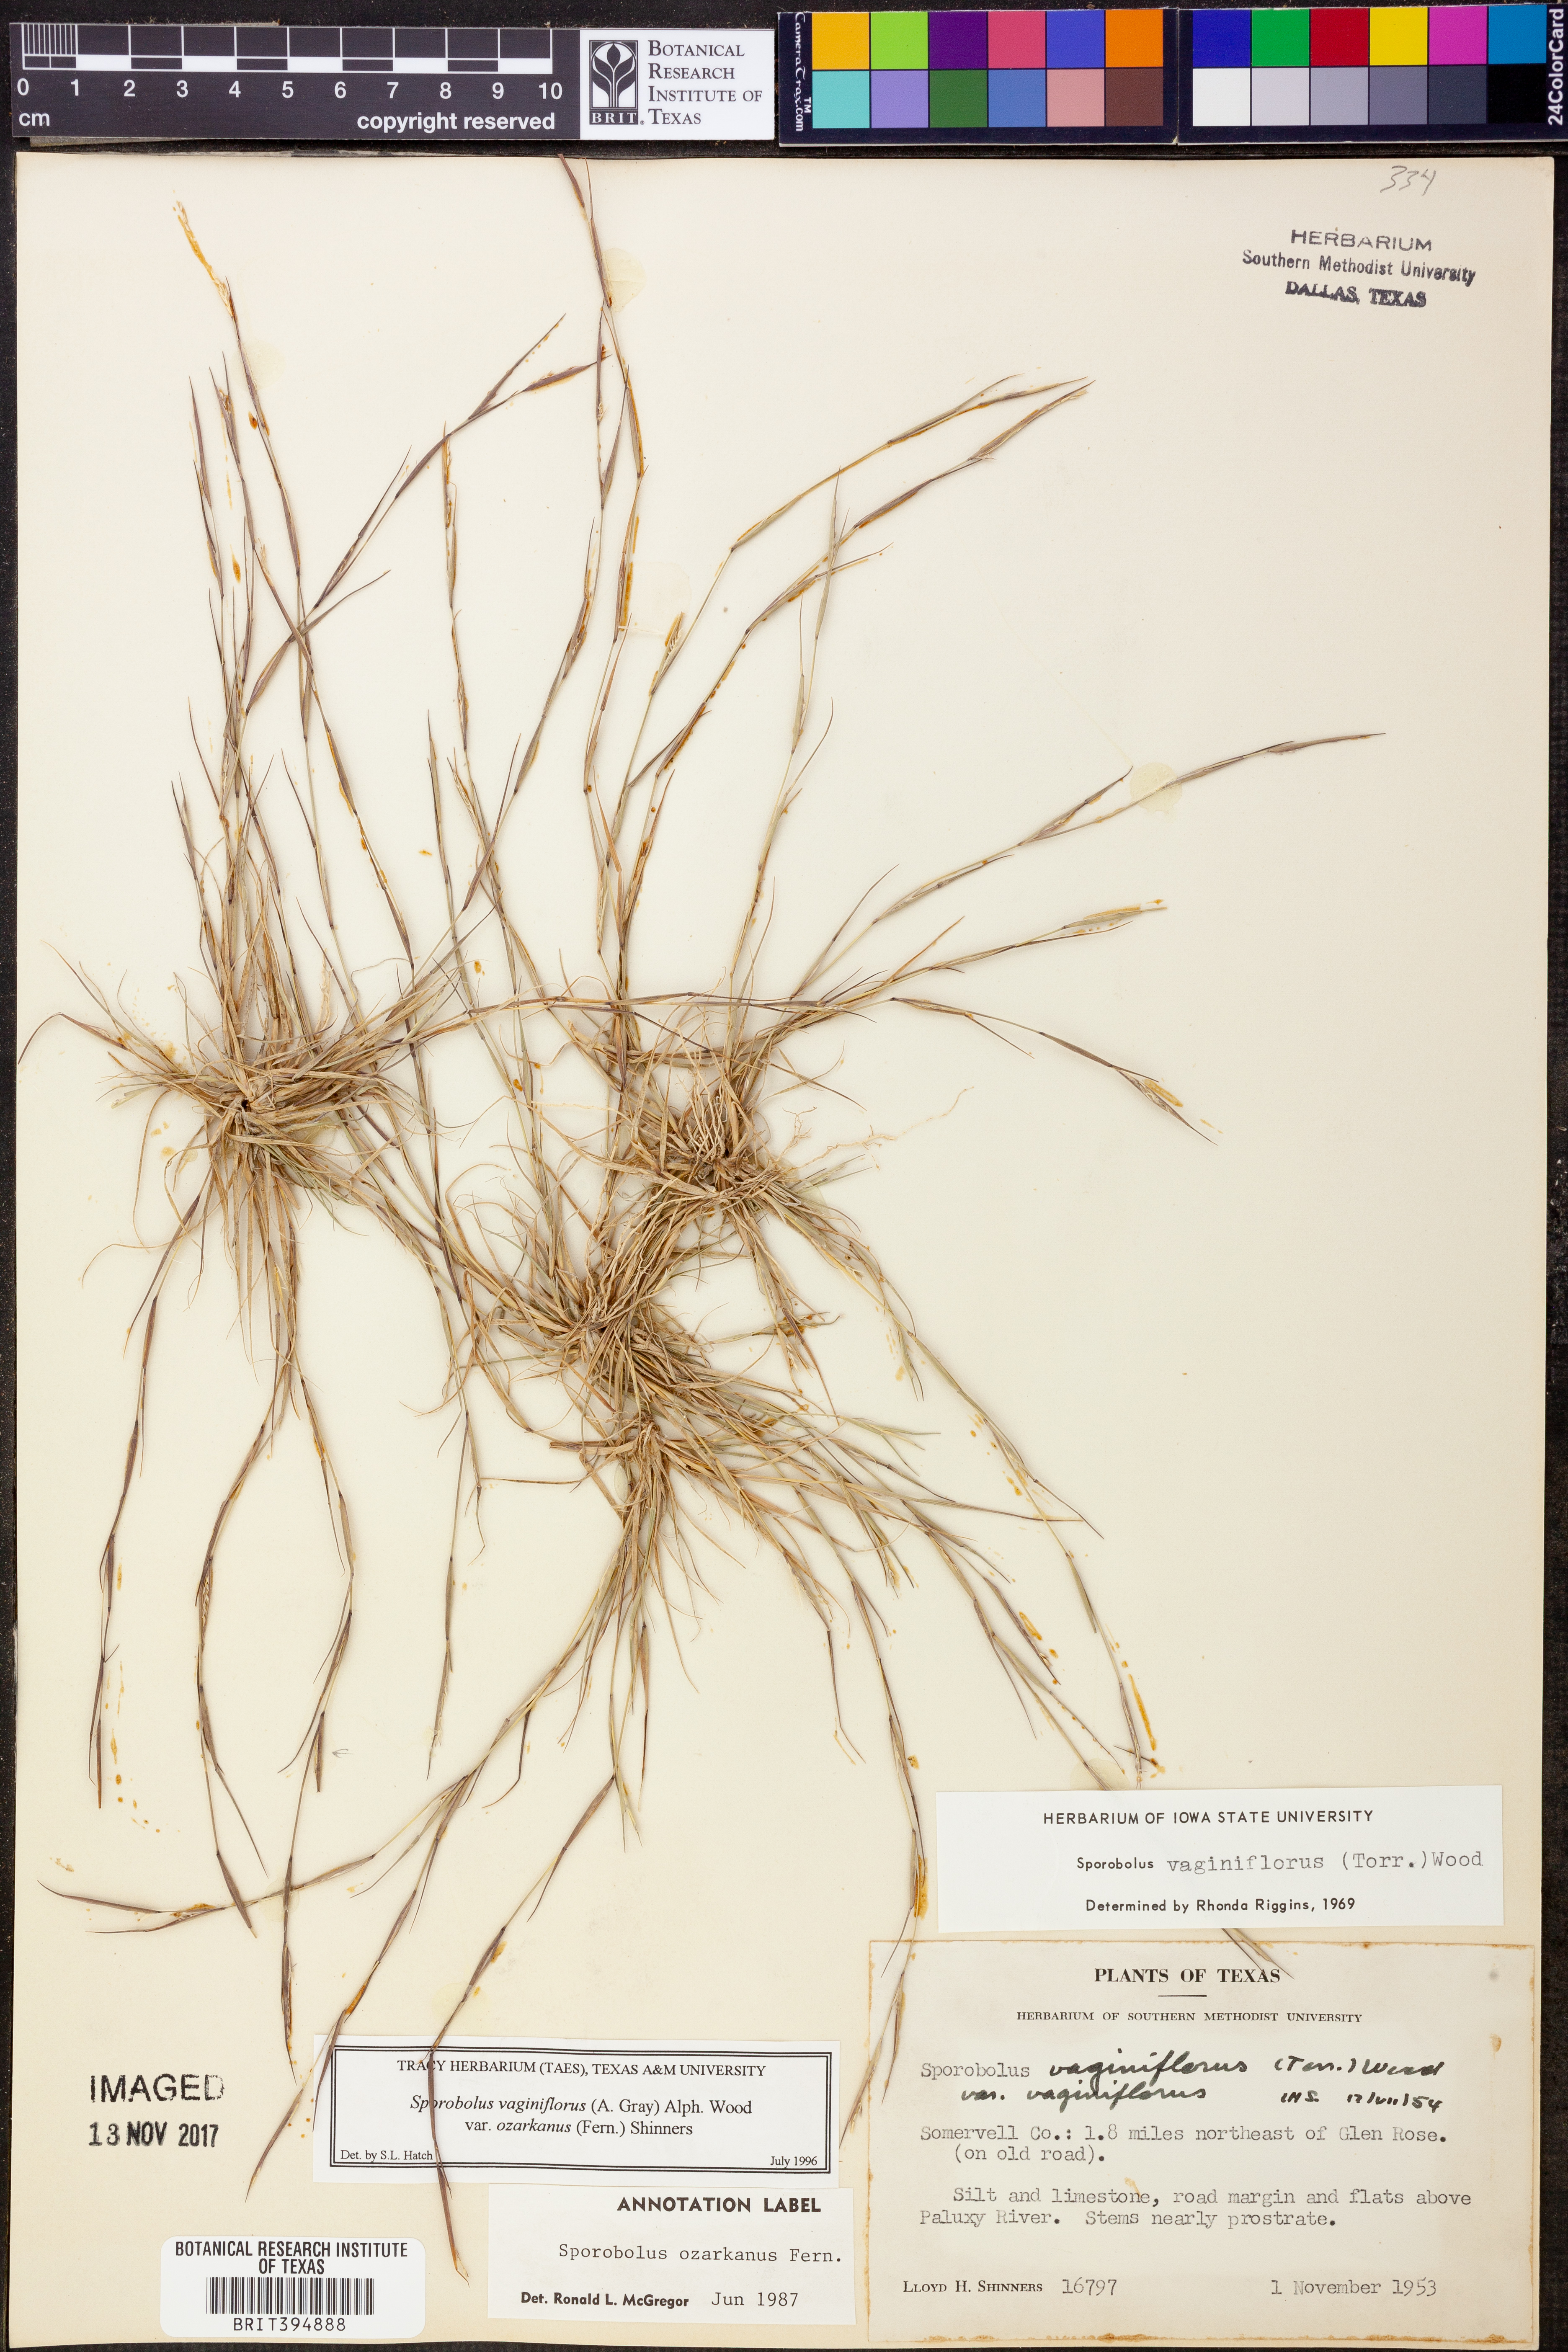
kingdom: Plantae
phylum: Tracheophyta
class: Liliopsida
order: Poales
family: Poaceae
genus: Sporobolus
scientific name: Sporobolus neglectus
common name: Annual dropseed
